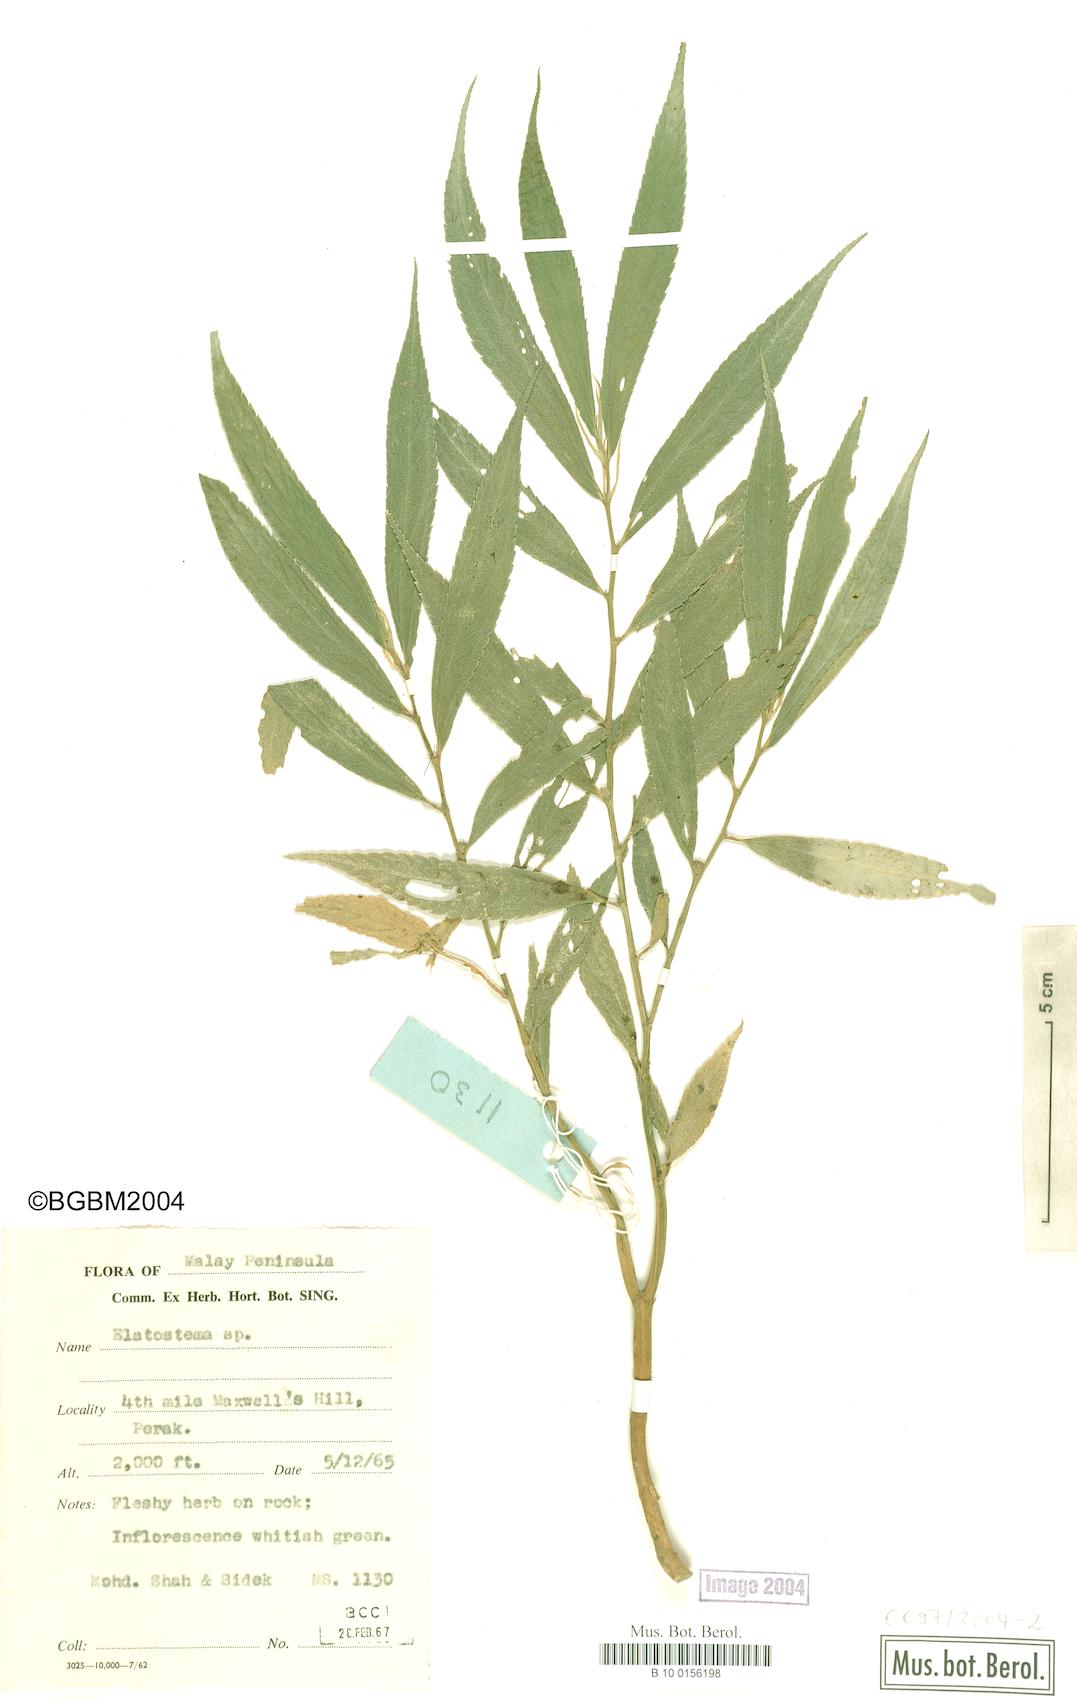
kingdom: Plantae
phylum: Tracheophyta
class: Magnoliopsida
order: Rosales
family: Urticaceae
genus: Elatostema
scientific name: Elatostema
